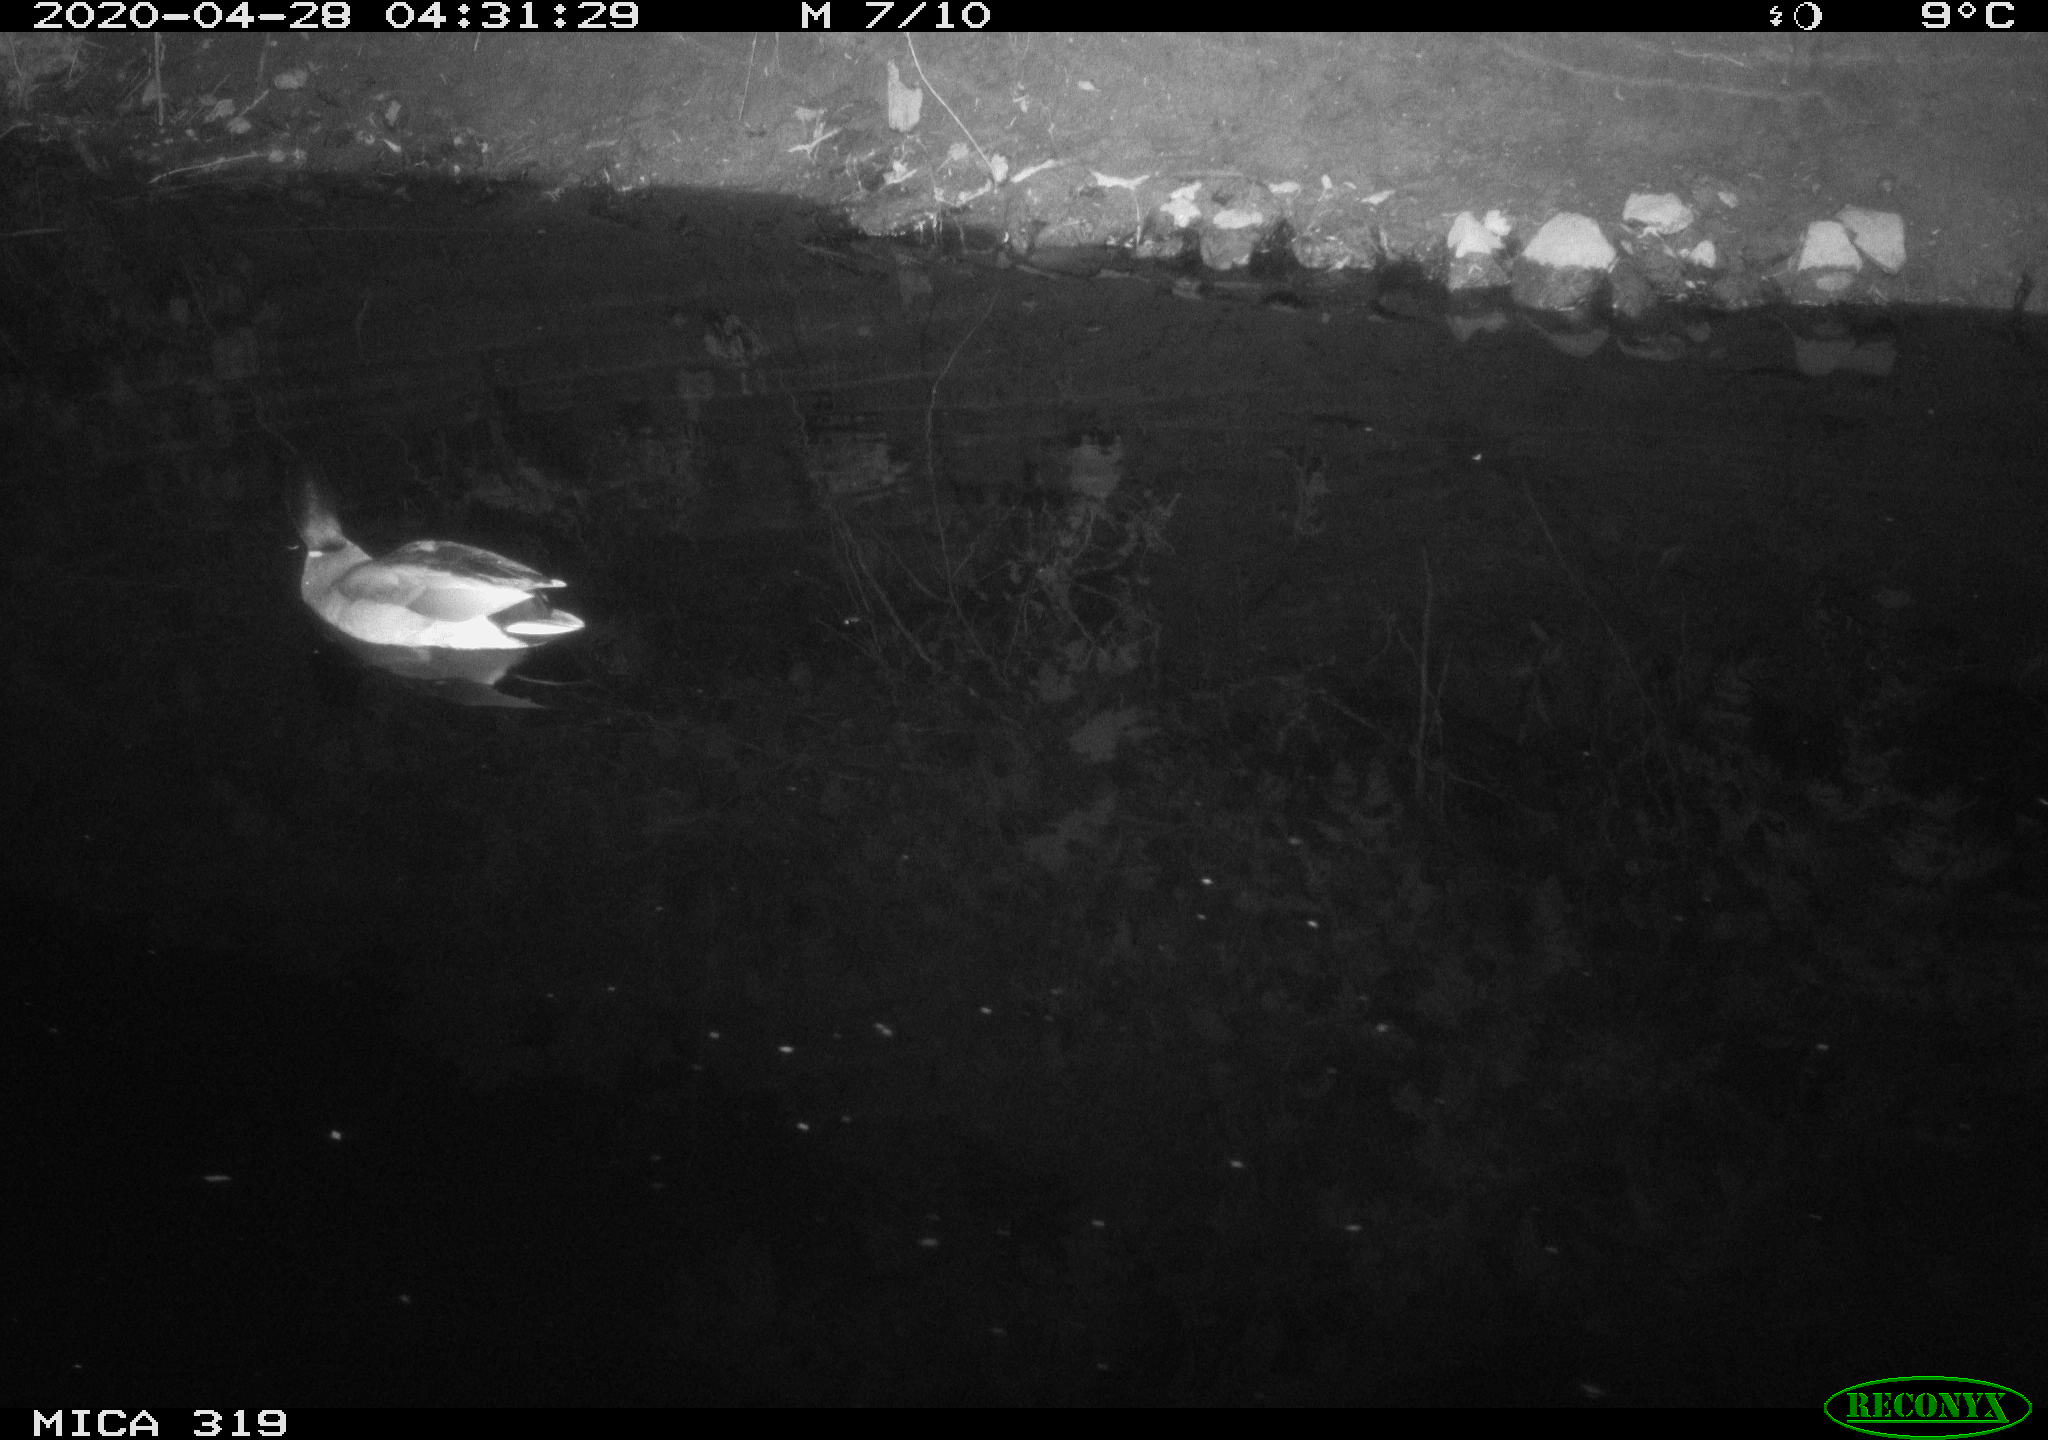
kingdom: Animalia
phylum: Chordata
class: Aves
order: Anseriformes
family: Anatidae
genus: Anas
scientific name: Anas platyrhynchos
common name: Mallard
